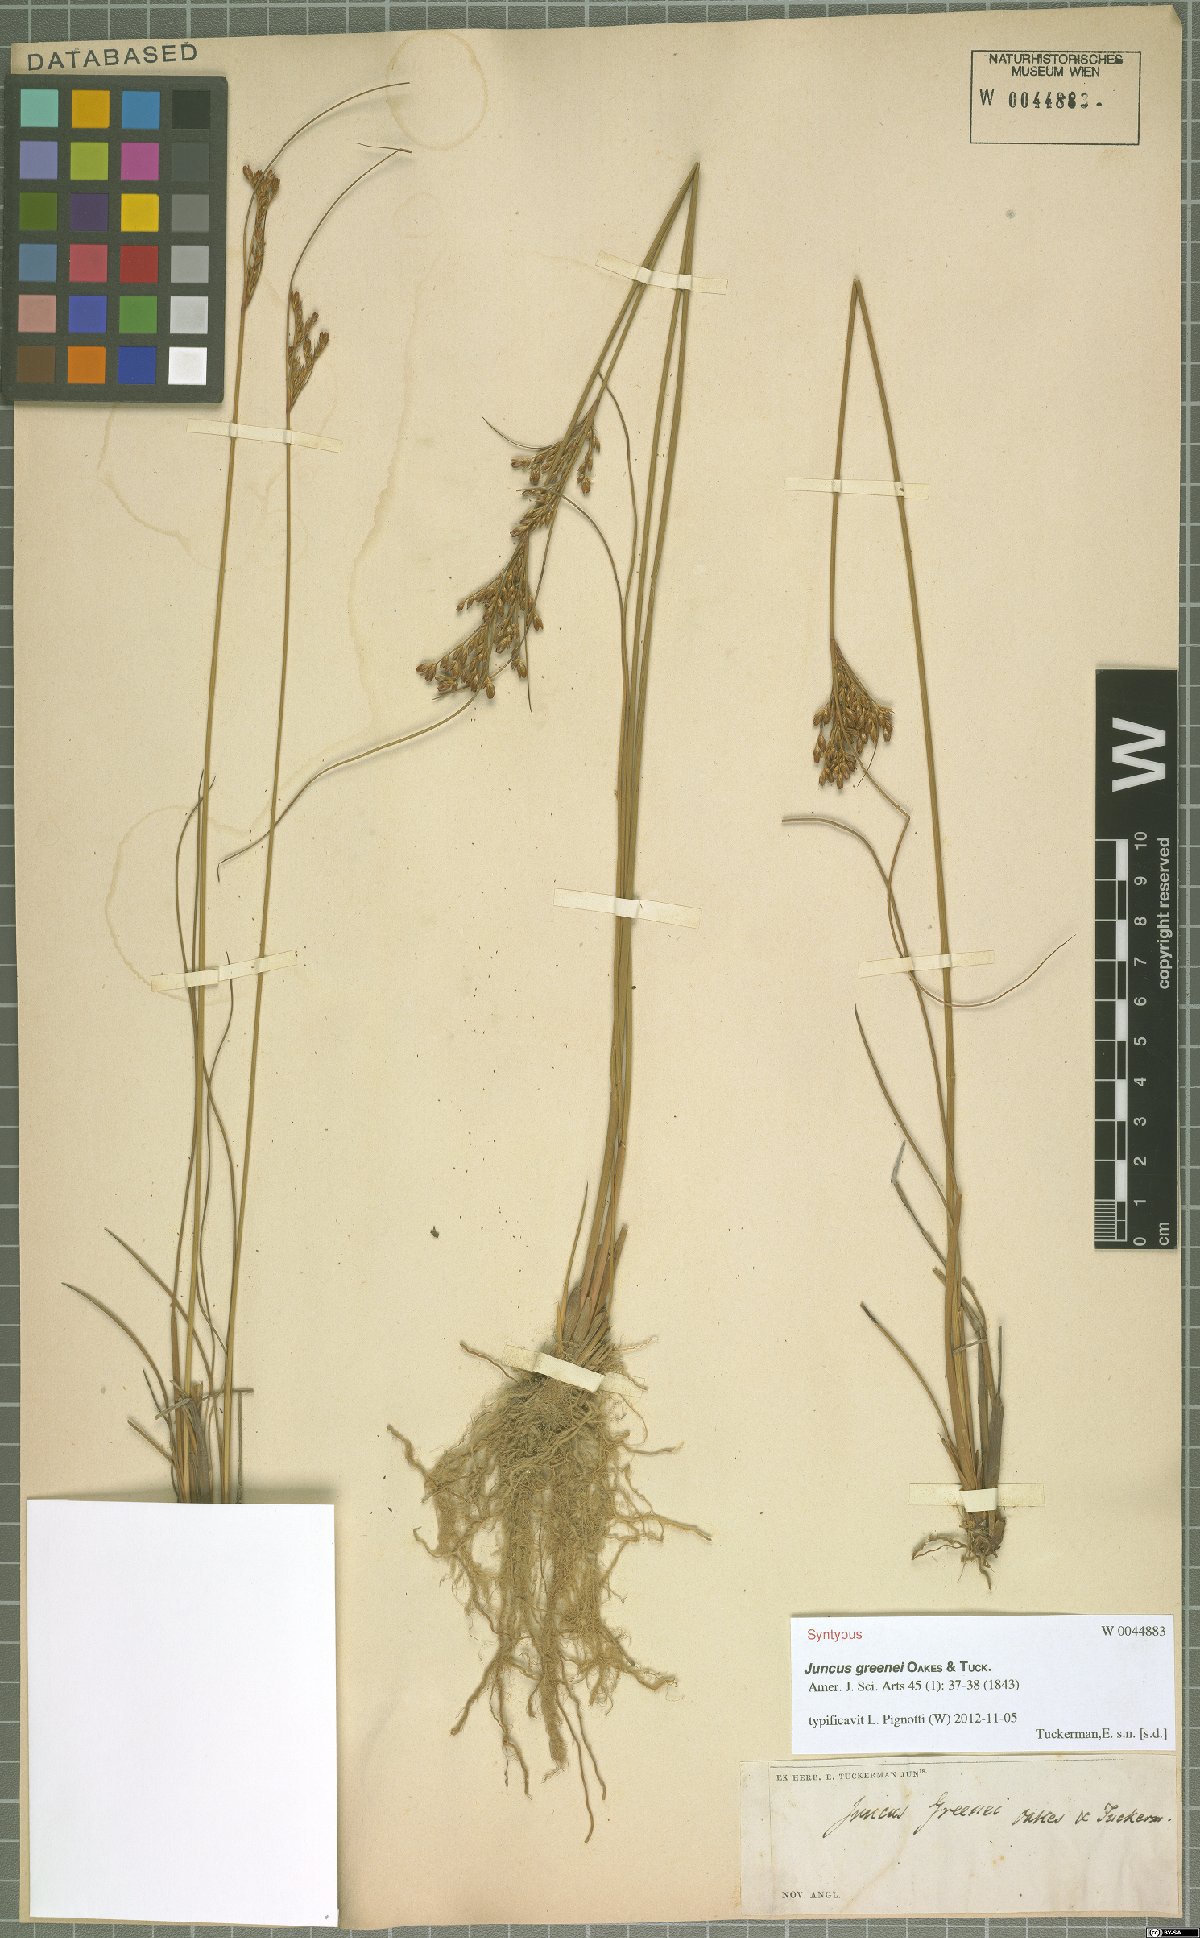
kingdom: Plantae
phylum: Tracheophyta
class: Liliopsida
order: Poales
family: Juncaceae
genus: Juncus
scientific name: Juncus greenei
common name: Greene's rush
